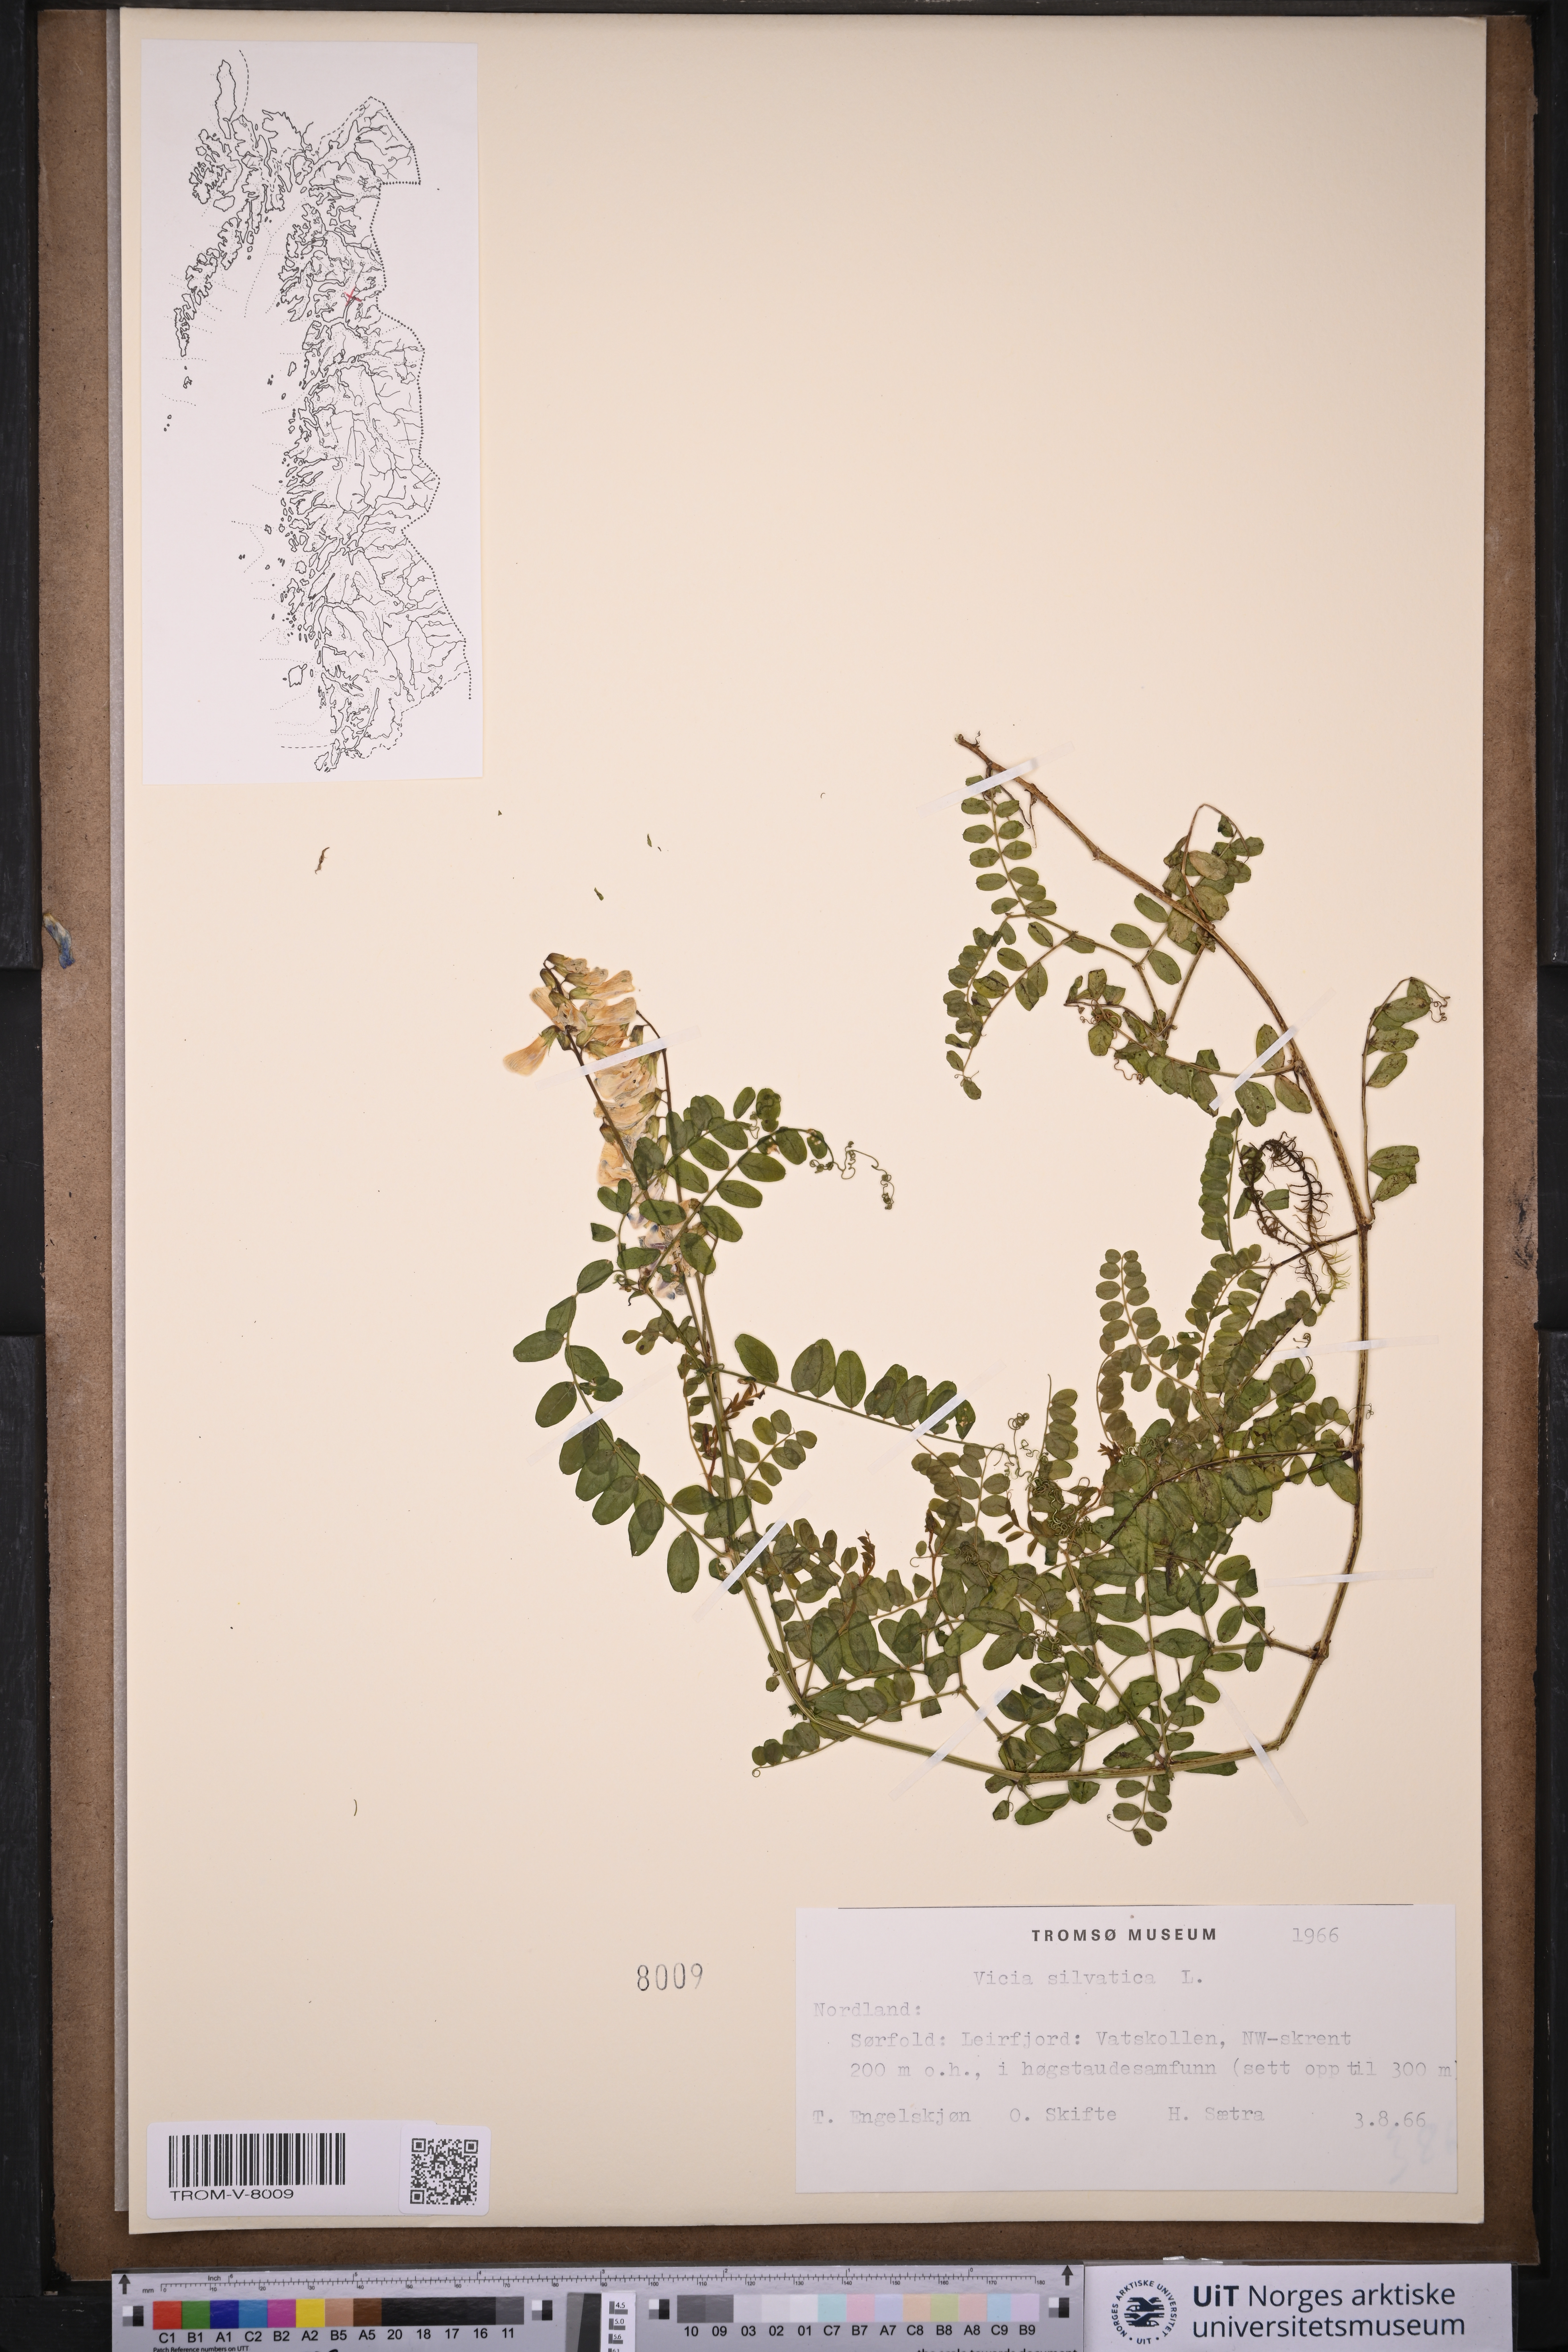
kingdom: Plantae
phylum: Tracheophyta
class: Magnoliopsida
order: Fabales
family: Fabaceae
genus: Vicia
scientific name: Vicia sylvatica
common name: Wood vetch
